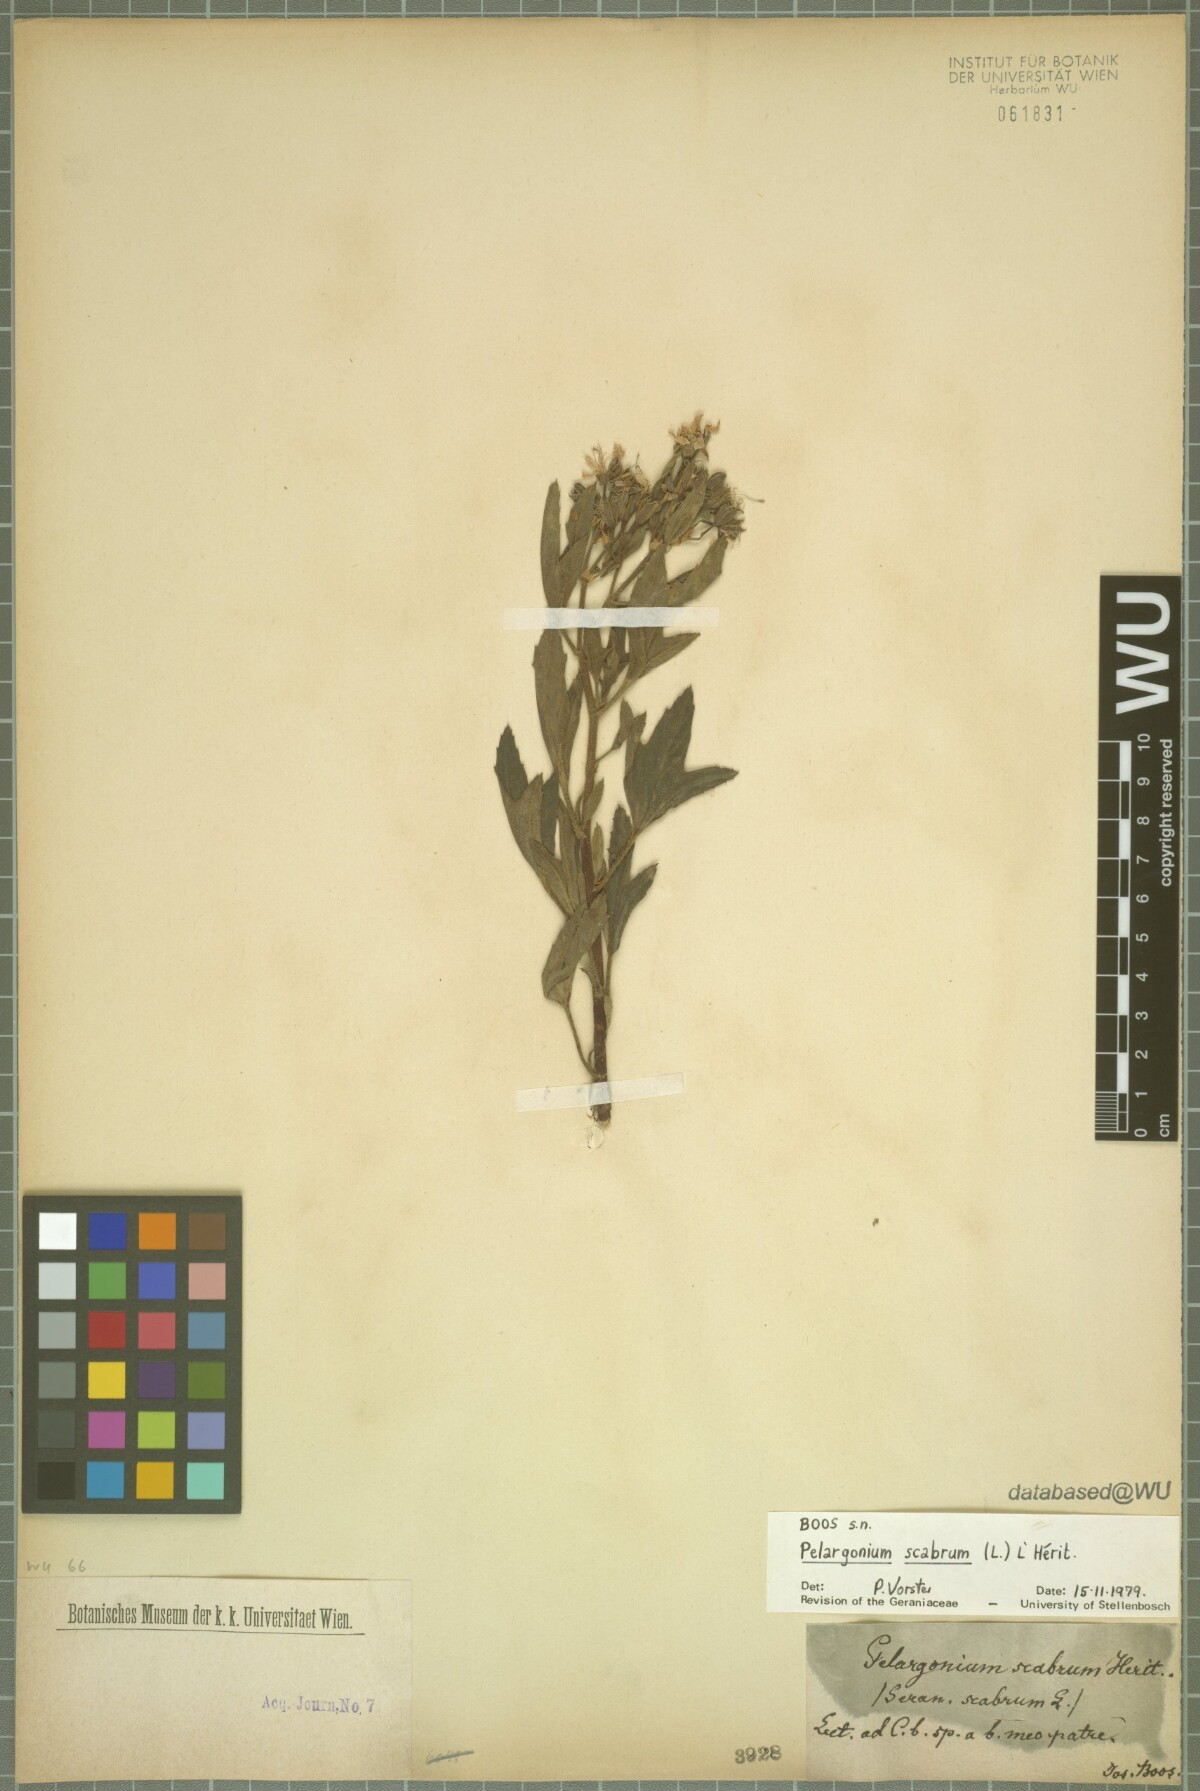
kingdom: Plantae
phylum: Tracheophyta
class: Magnoliopsida
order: Geraniales
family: Geraniaceae
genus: Pelargonium
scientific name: Pelargonium scabrum
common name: Apricot geranium
